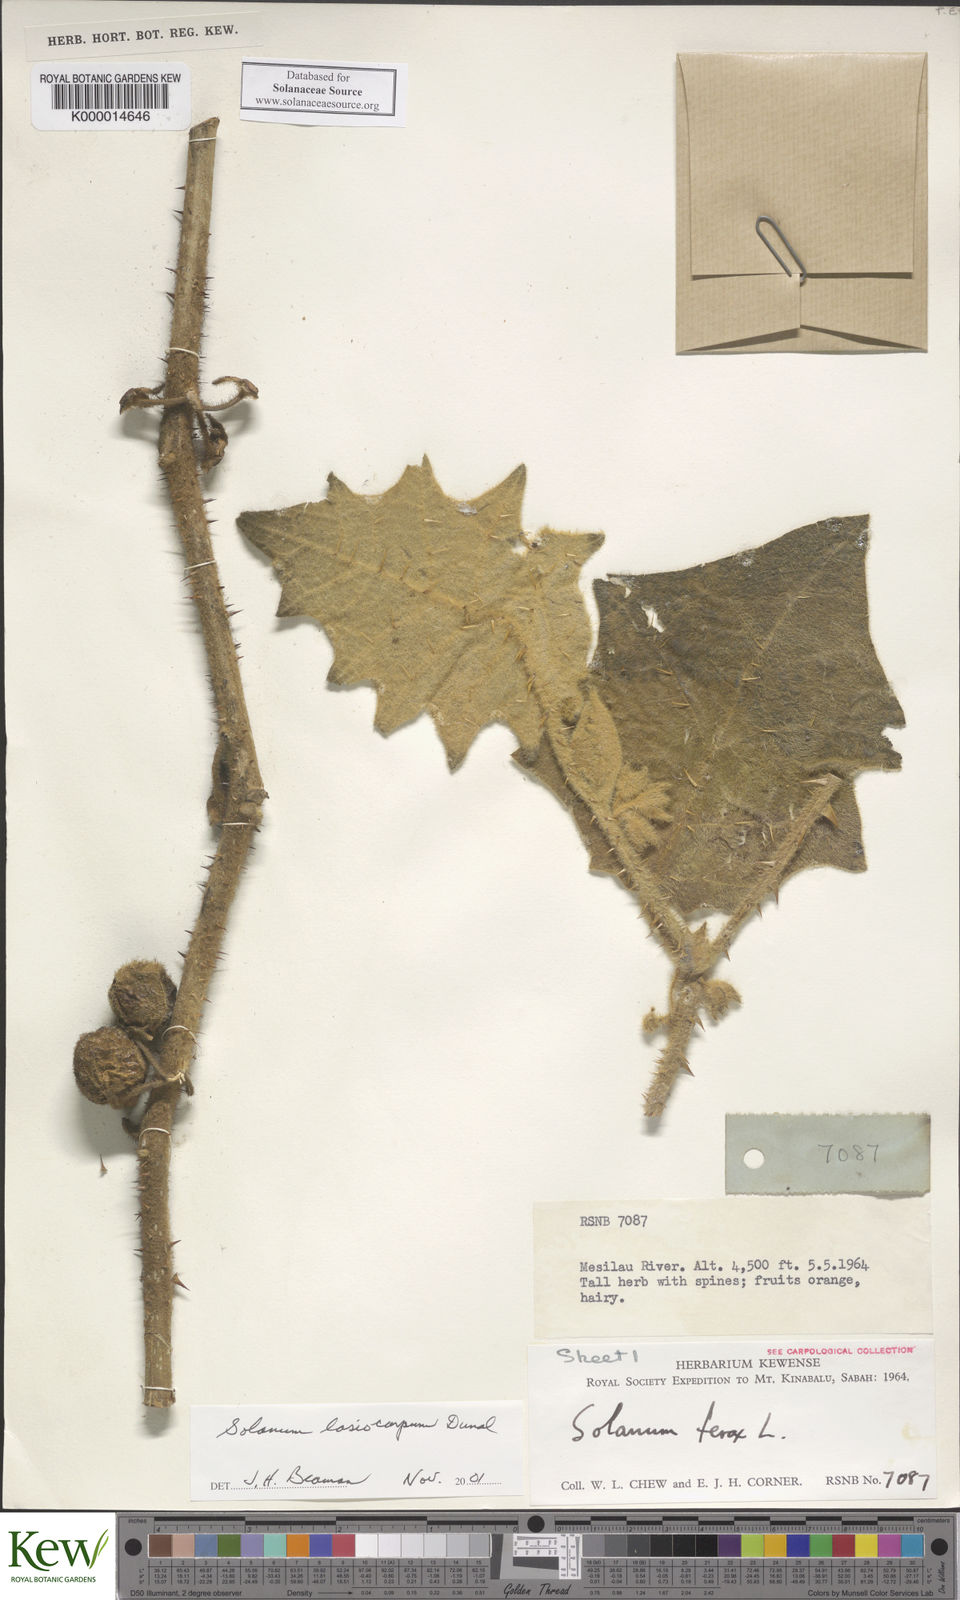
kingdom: Plantae
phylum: Tracheophyta
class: Magnoliopsida
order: Solanales
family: Solanaceae
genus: Solanum
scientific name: Solanum lasiocarpum
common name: Indian nightshade
